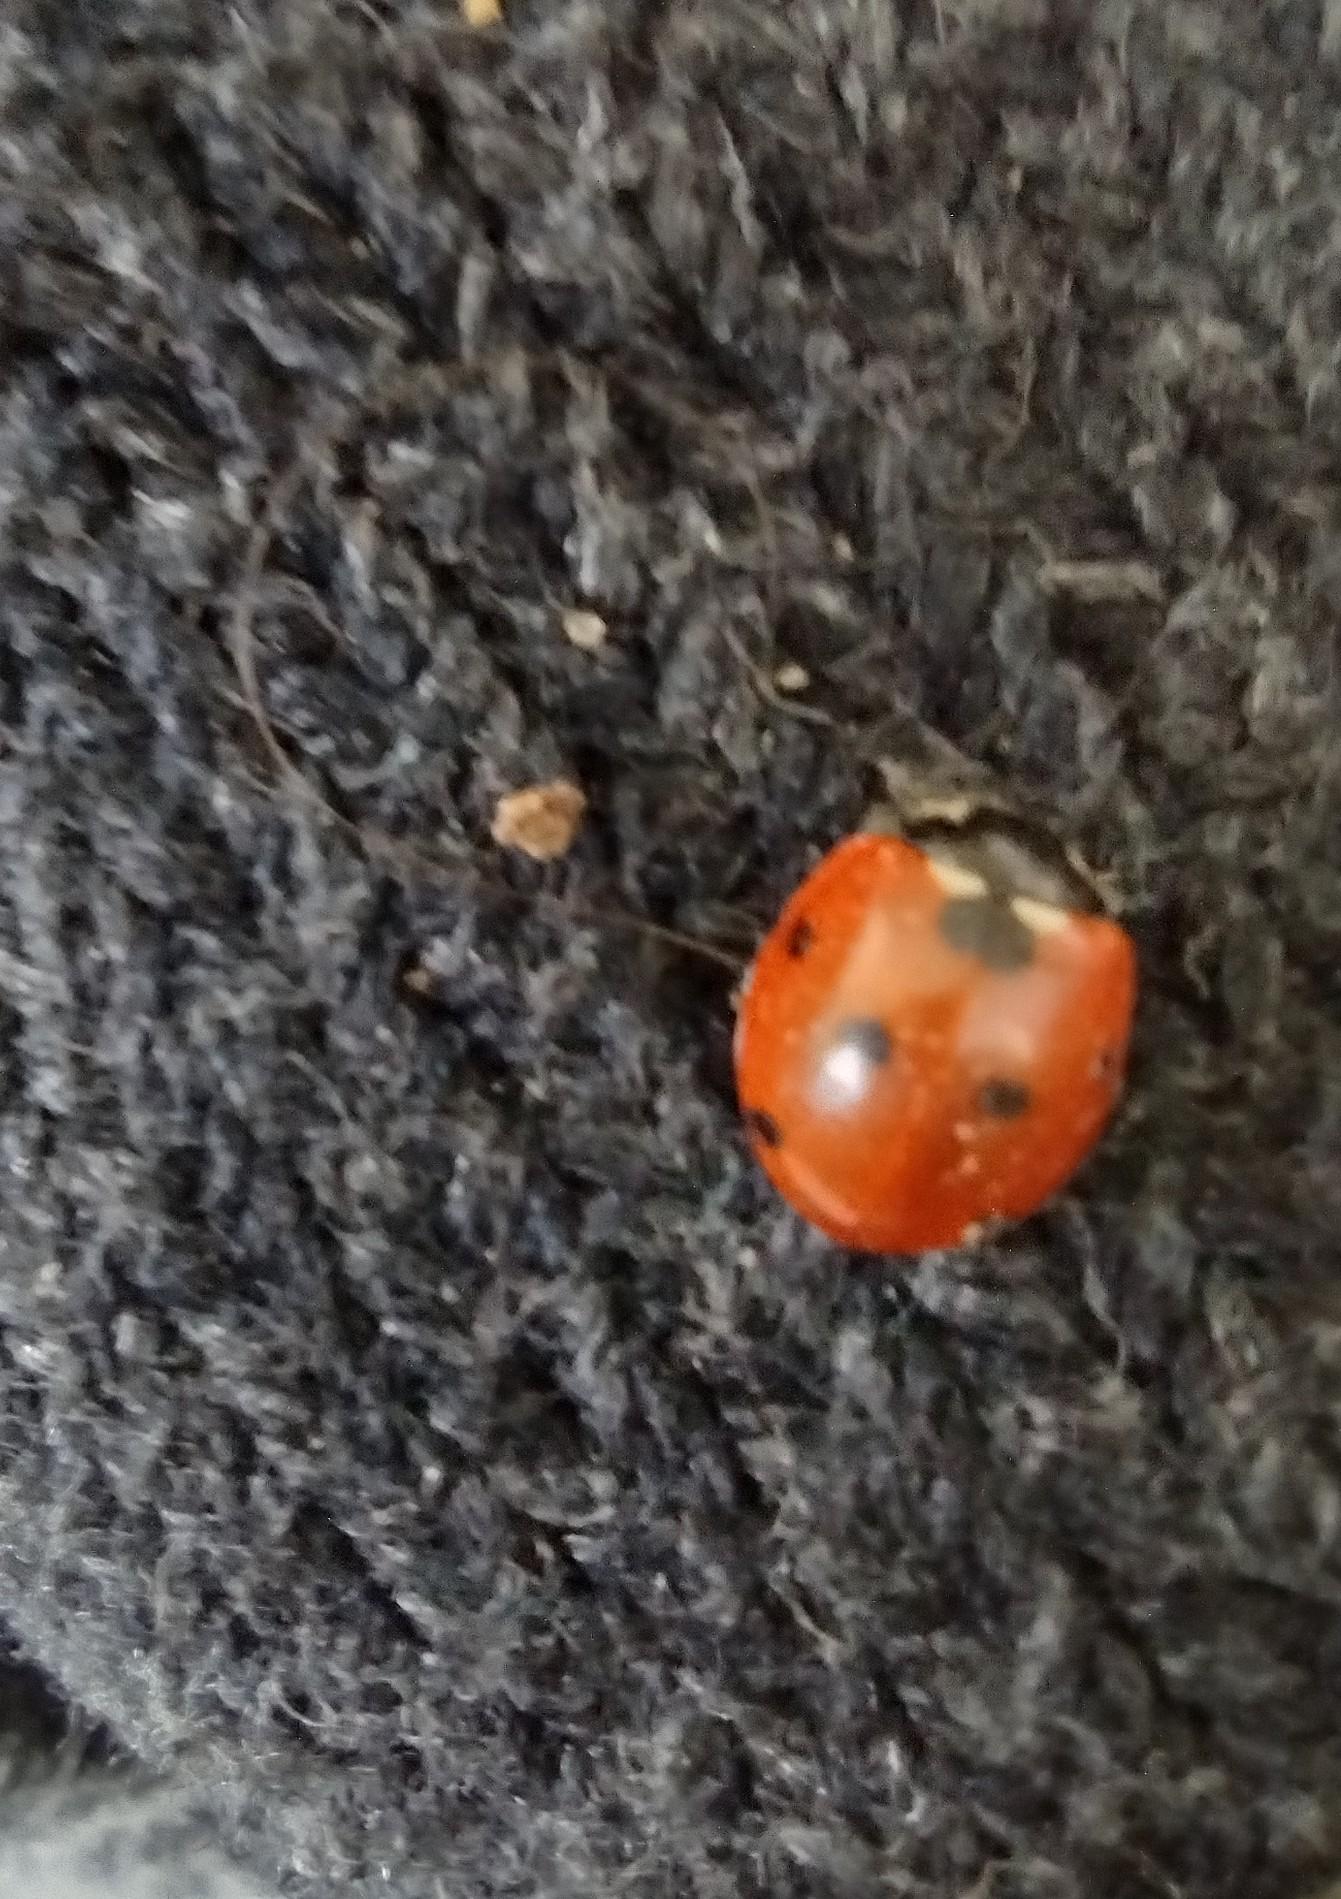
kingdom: Animalia
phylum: Arthropoda
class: Insecta
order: Coleoptera
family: Coccinellidae
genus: Coccinella
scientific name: Coccinella septempunctata
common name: Syvplettet mariehøne
